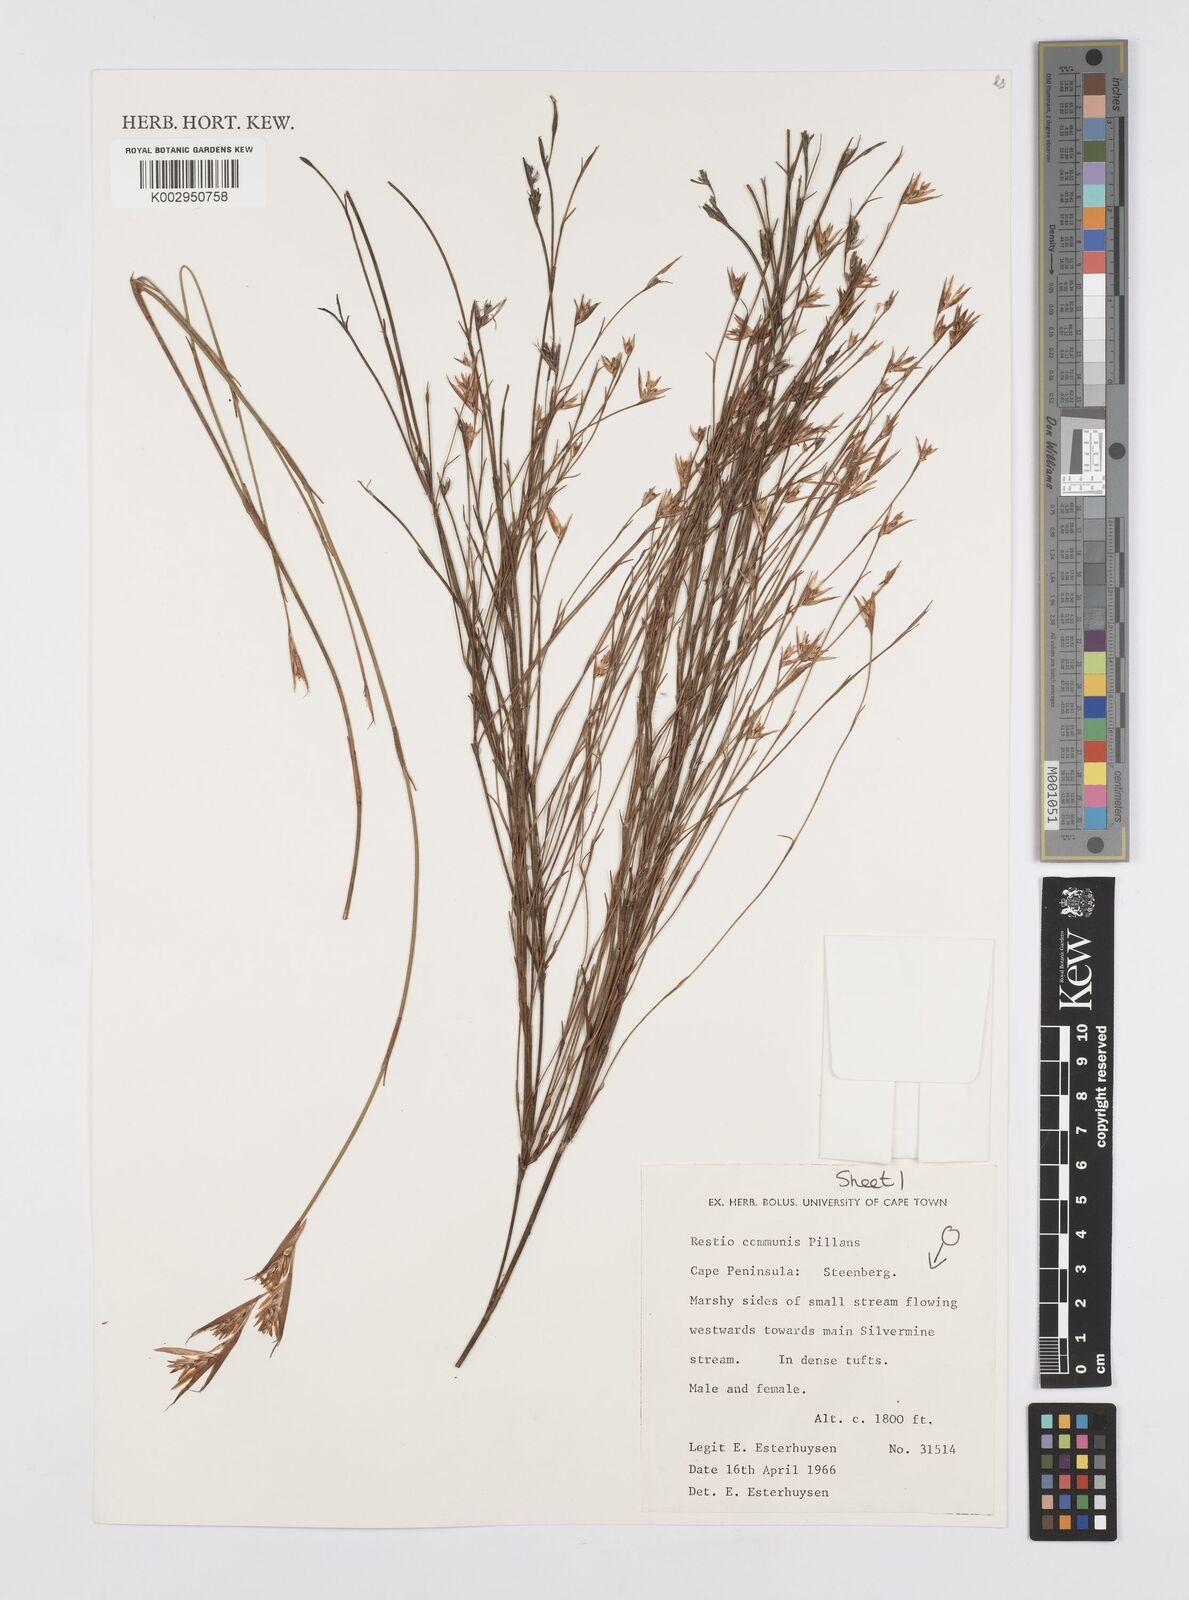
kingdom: Plantae
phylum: Tracheophyta
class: Liliopsida
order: Poales
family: Restionaceae
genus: Restio
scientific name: Restio communis
